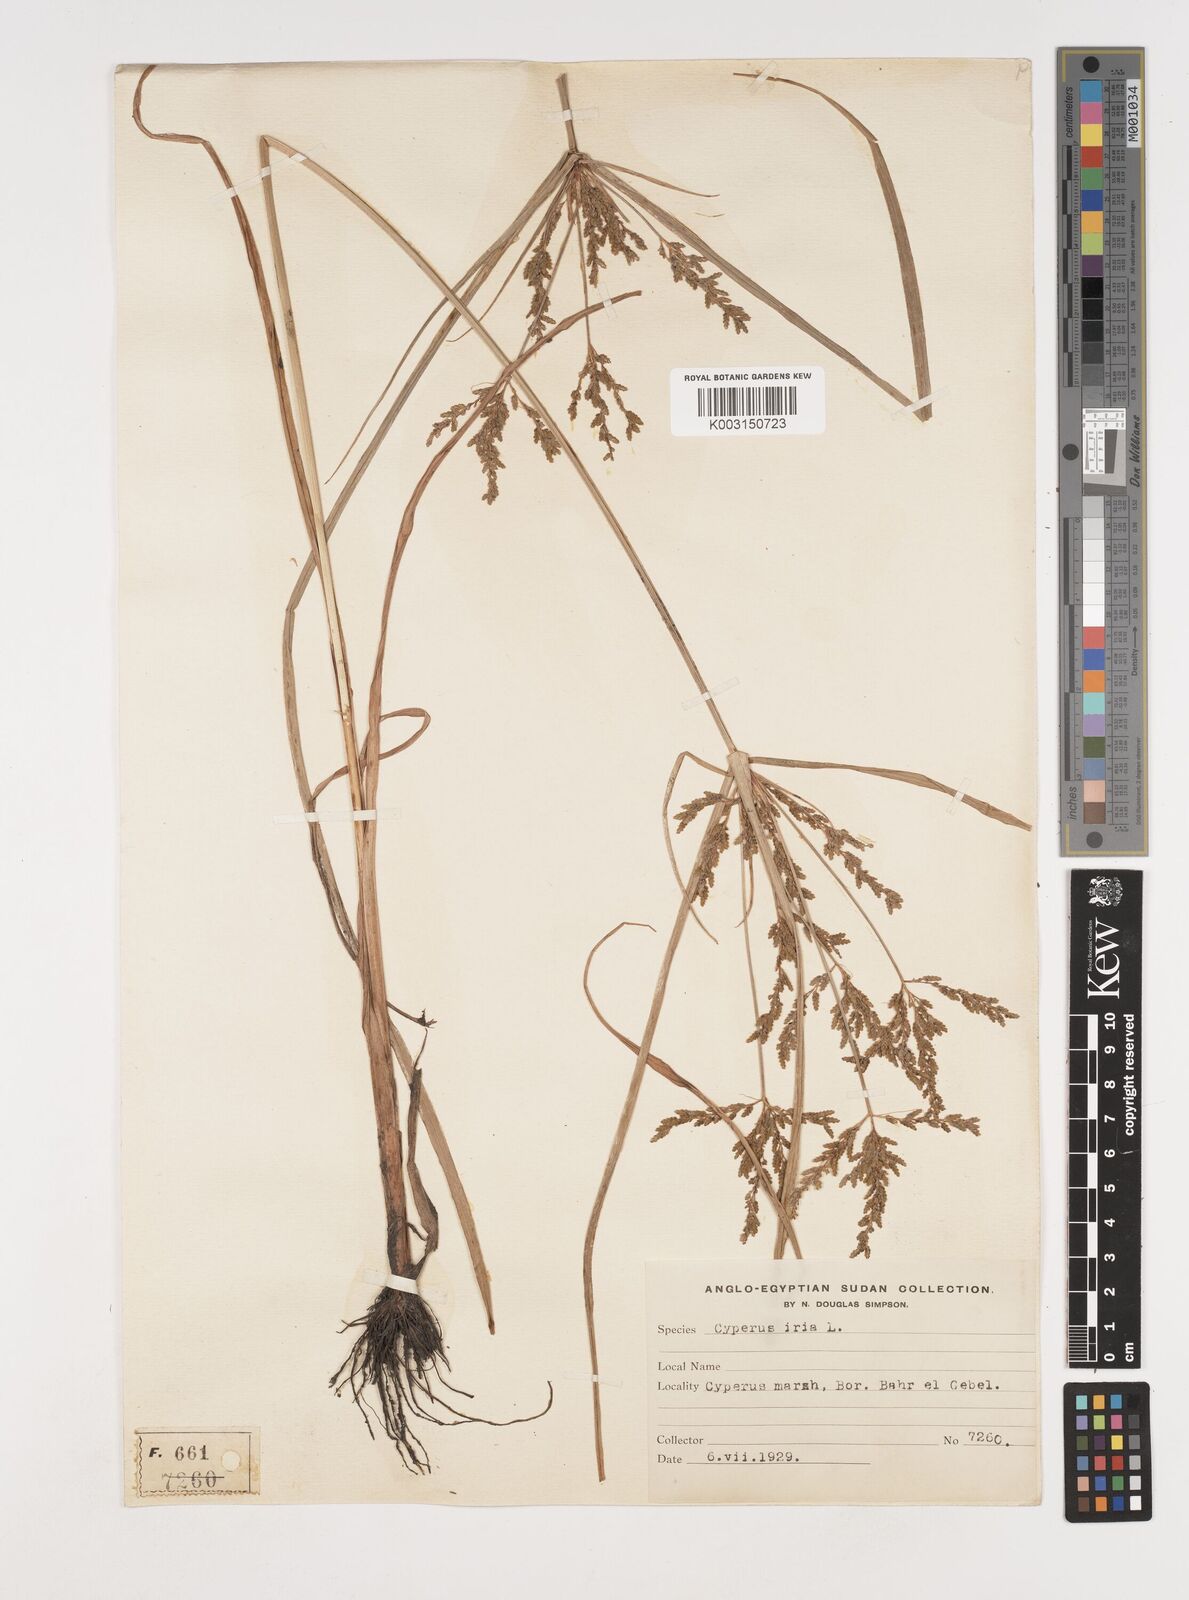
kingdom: Plantae
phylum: Tracheophyta
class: Liliopsida
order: Poales
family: Cyperaceae
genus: Cyperus
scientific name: Cyperus iria
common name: Ricefield flatsedge
